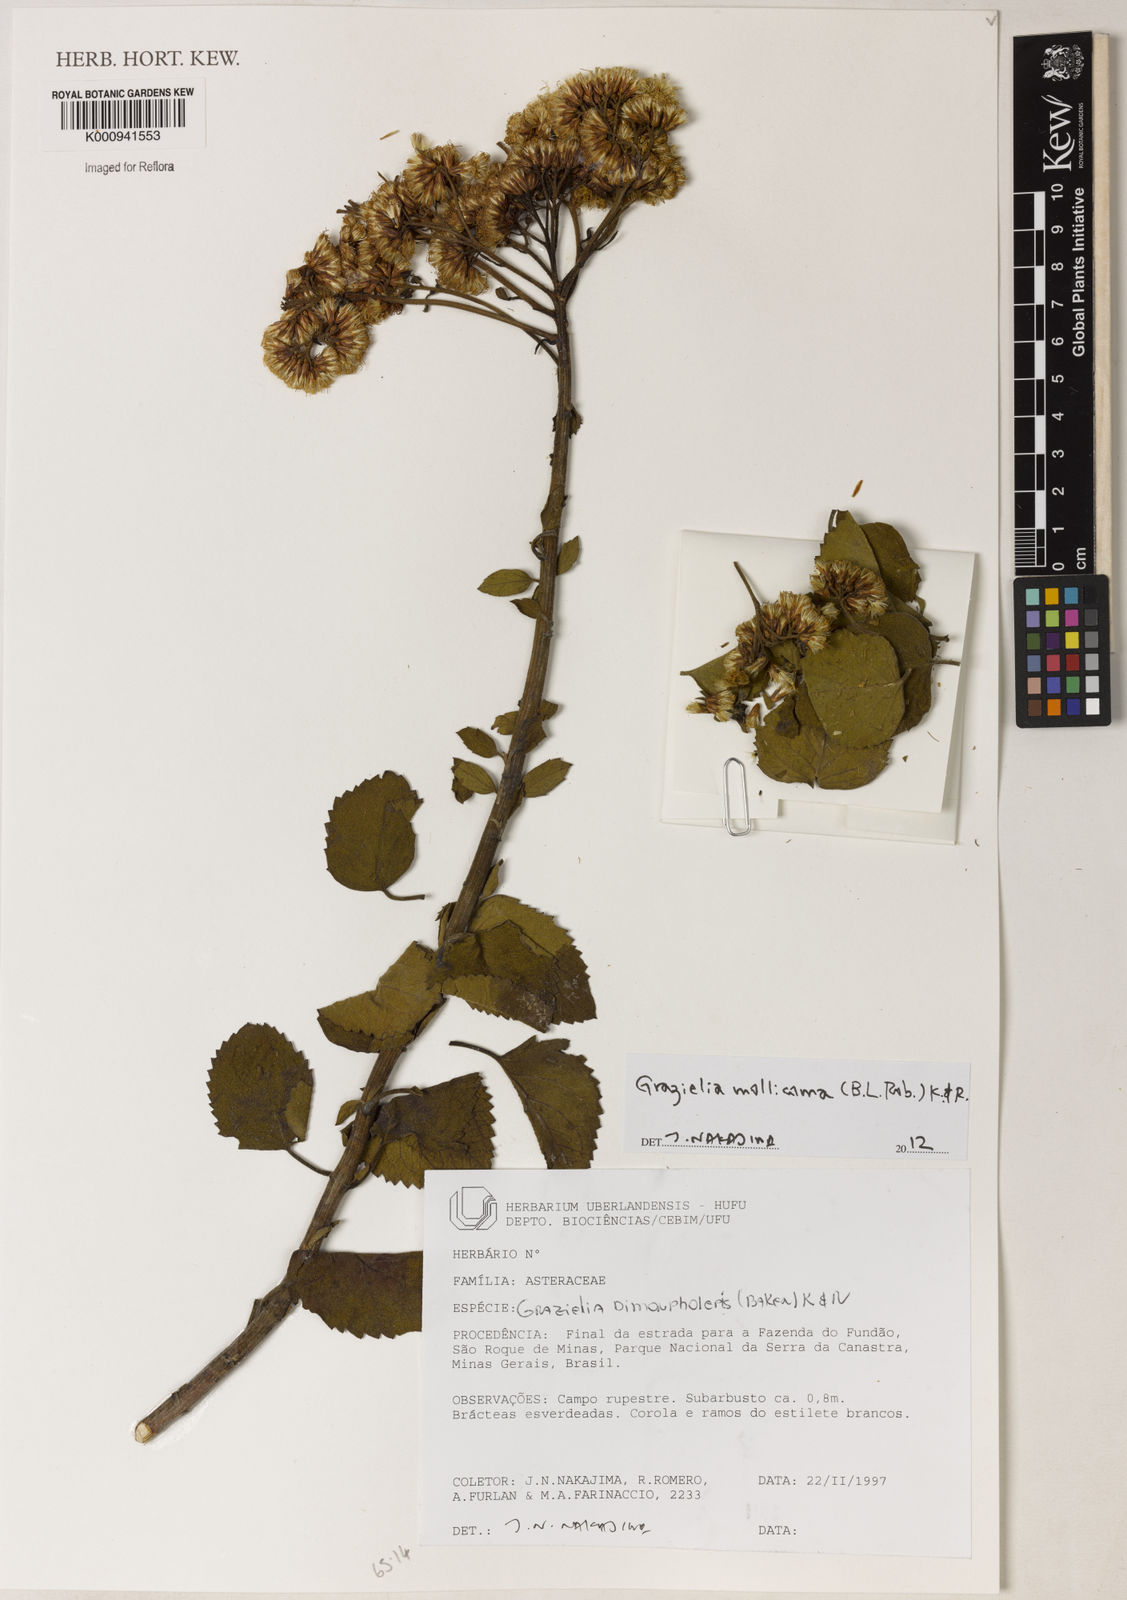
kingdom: Plantae
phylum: Tracheophyta
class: Magnoliopsida
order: Asterales
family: Asteraceae
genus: Grazielia
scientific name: Grazielia mollicoma
